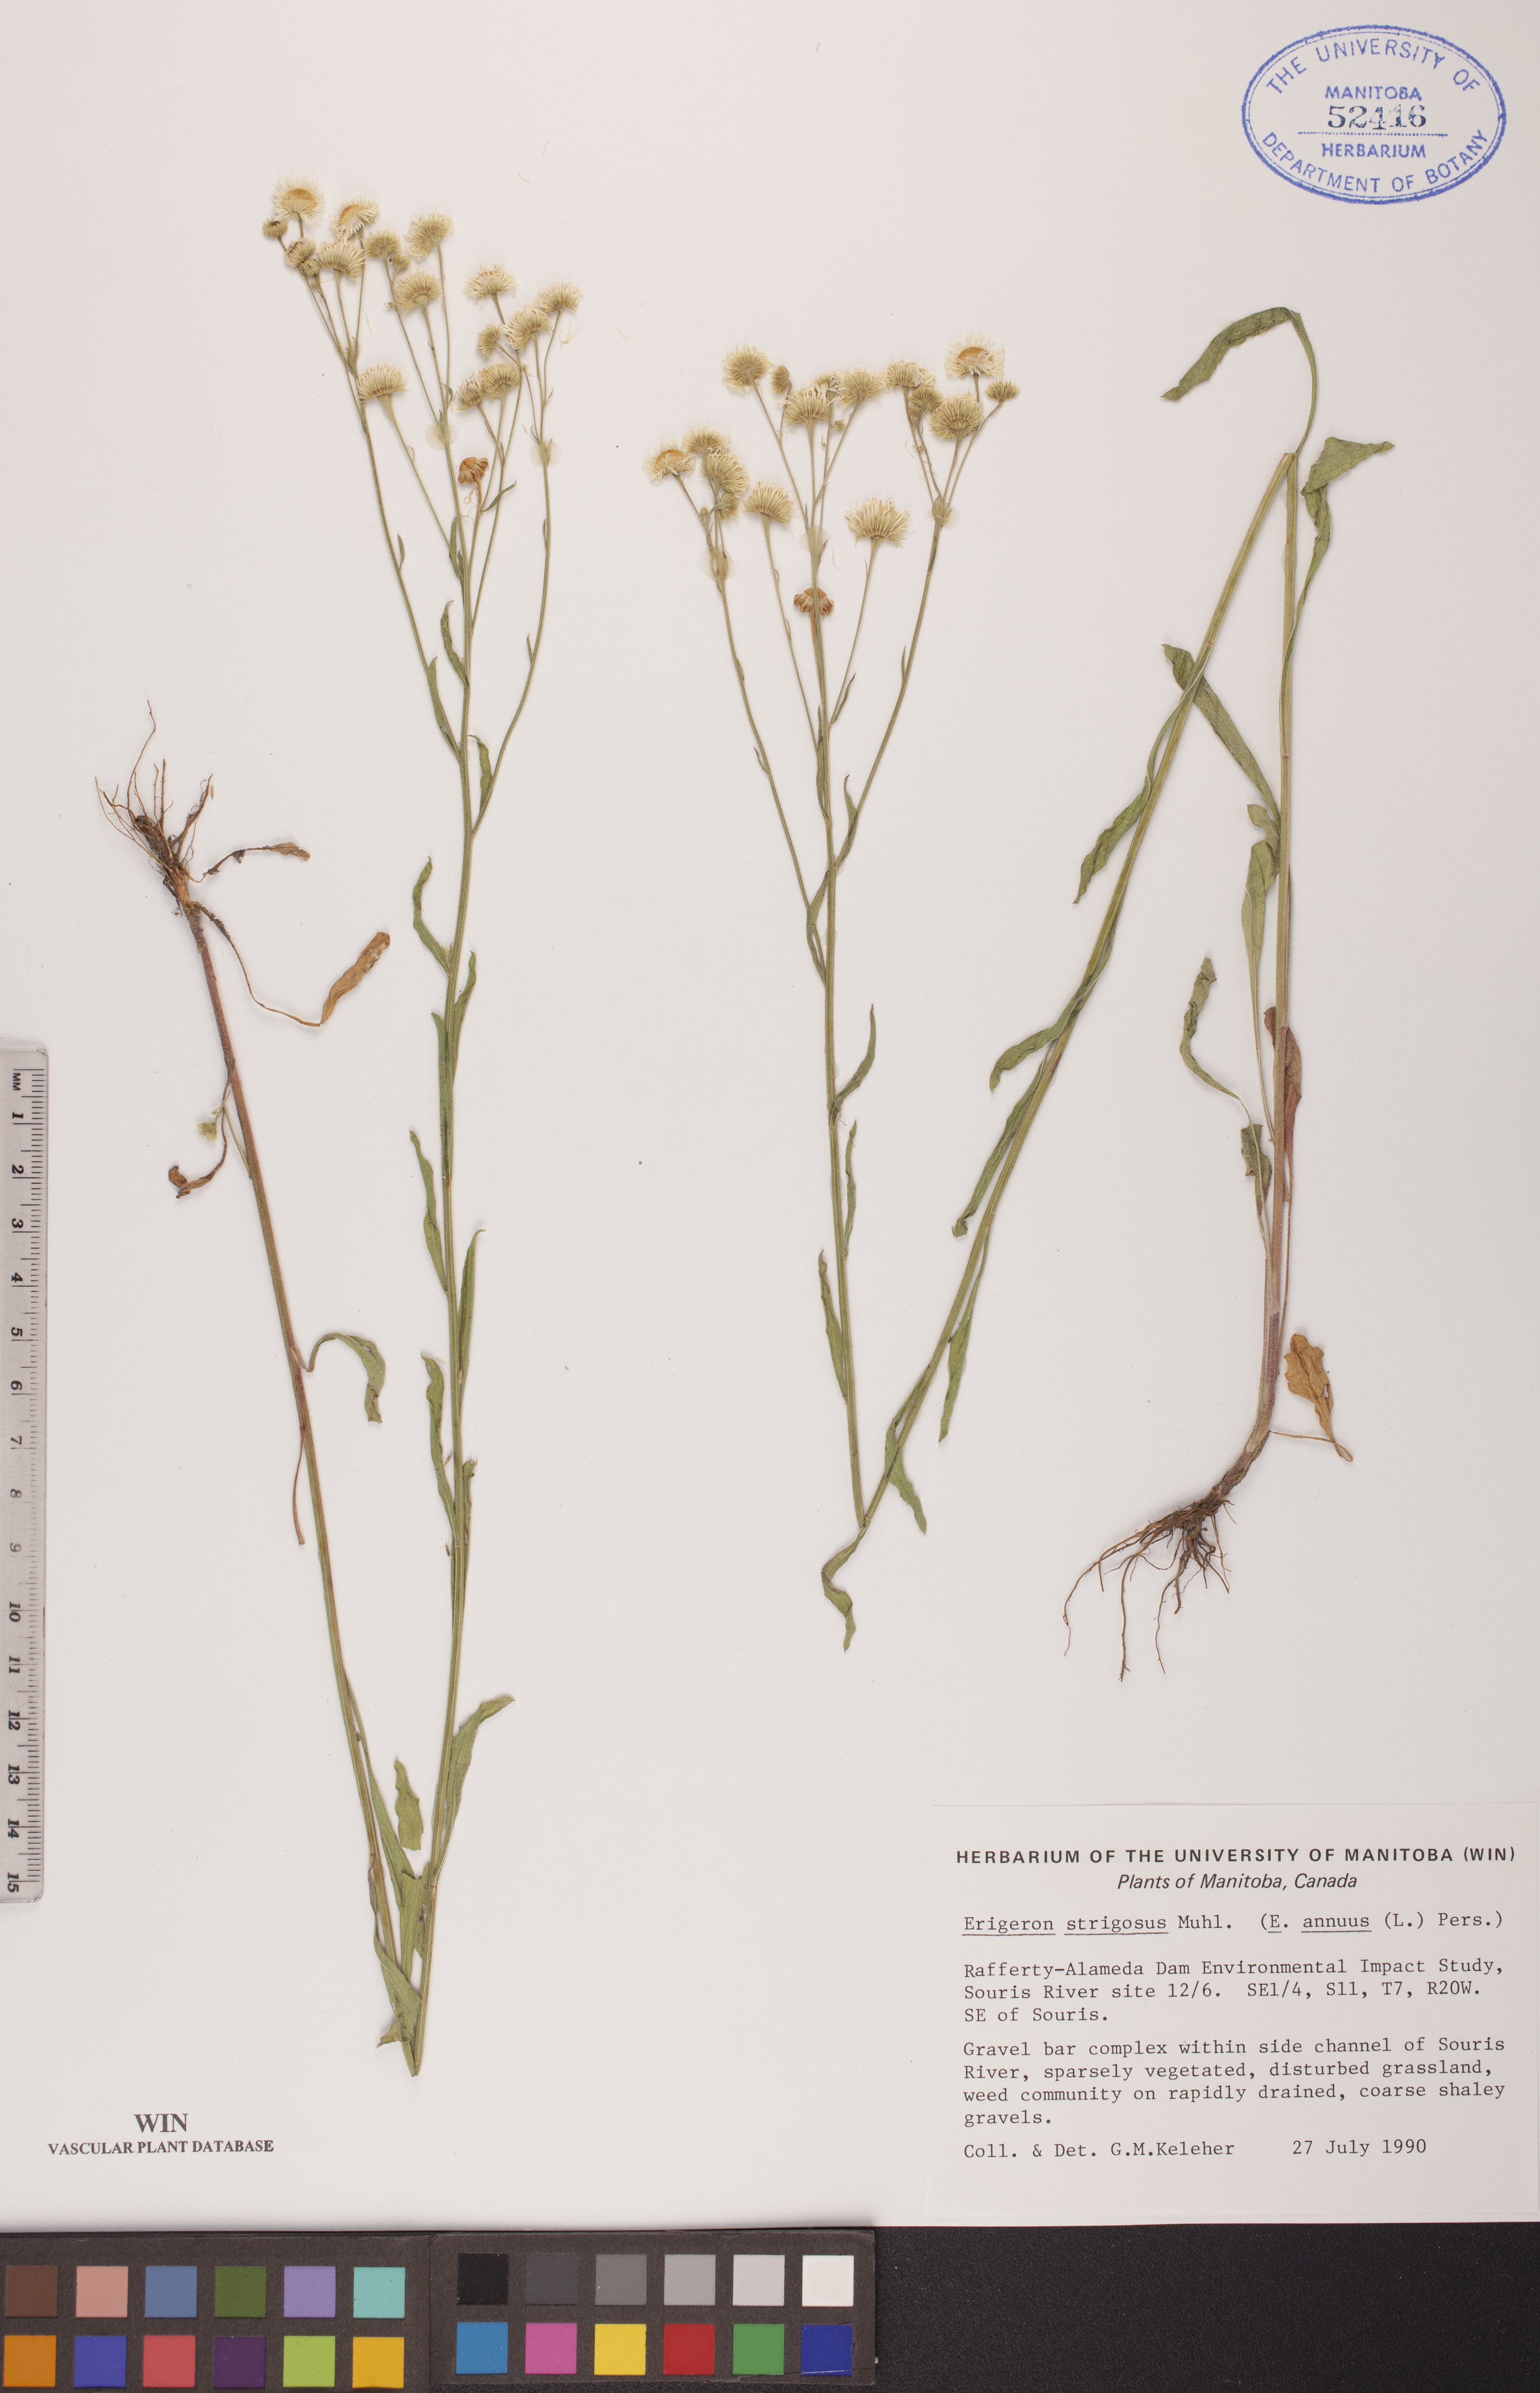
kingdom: Plantae
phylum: Tracheophyta
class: Magnoliopsida
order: Asterales
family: Asteraceae
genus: Erigeron
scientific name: Erigeron strigosus
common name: Common eastern fleabane
